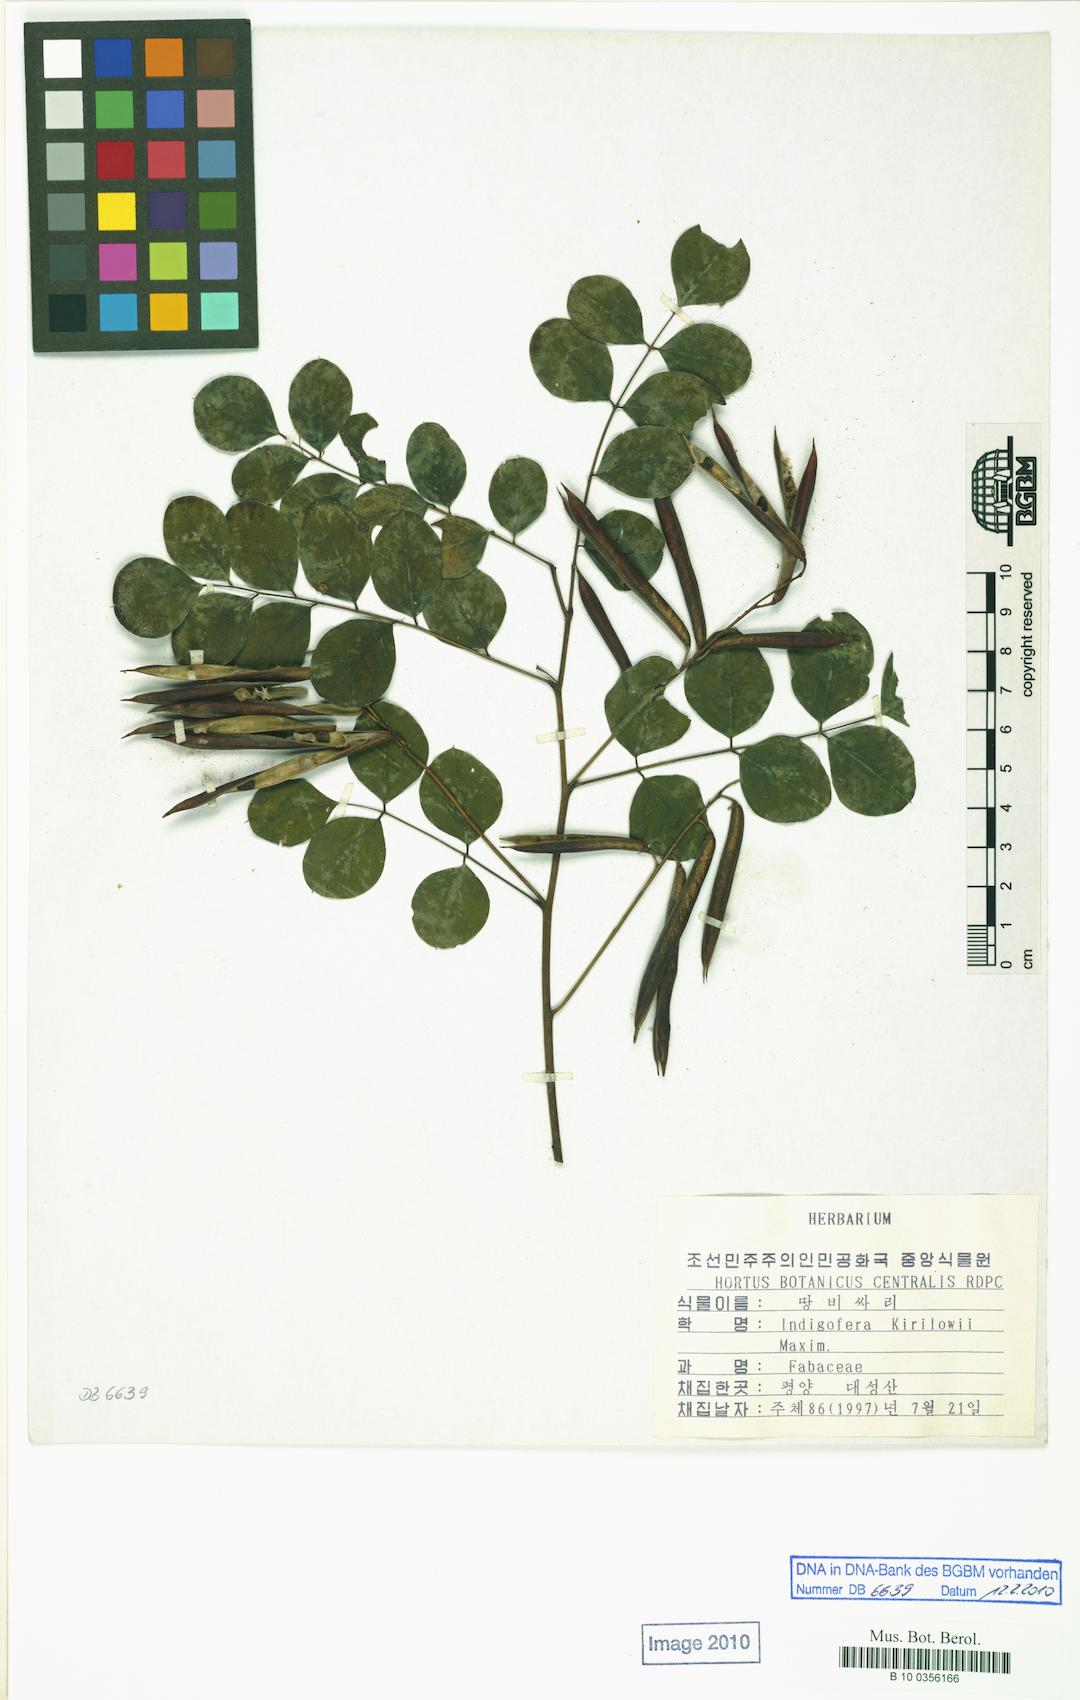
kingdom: Plantae
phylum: Tracheophyta
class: Magnoliopsida
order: Fabales
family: Fabaceae
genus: Indigofera
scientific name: Indigofera kirilowii
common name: Kirilow's indigo
